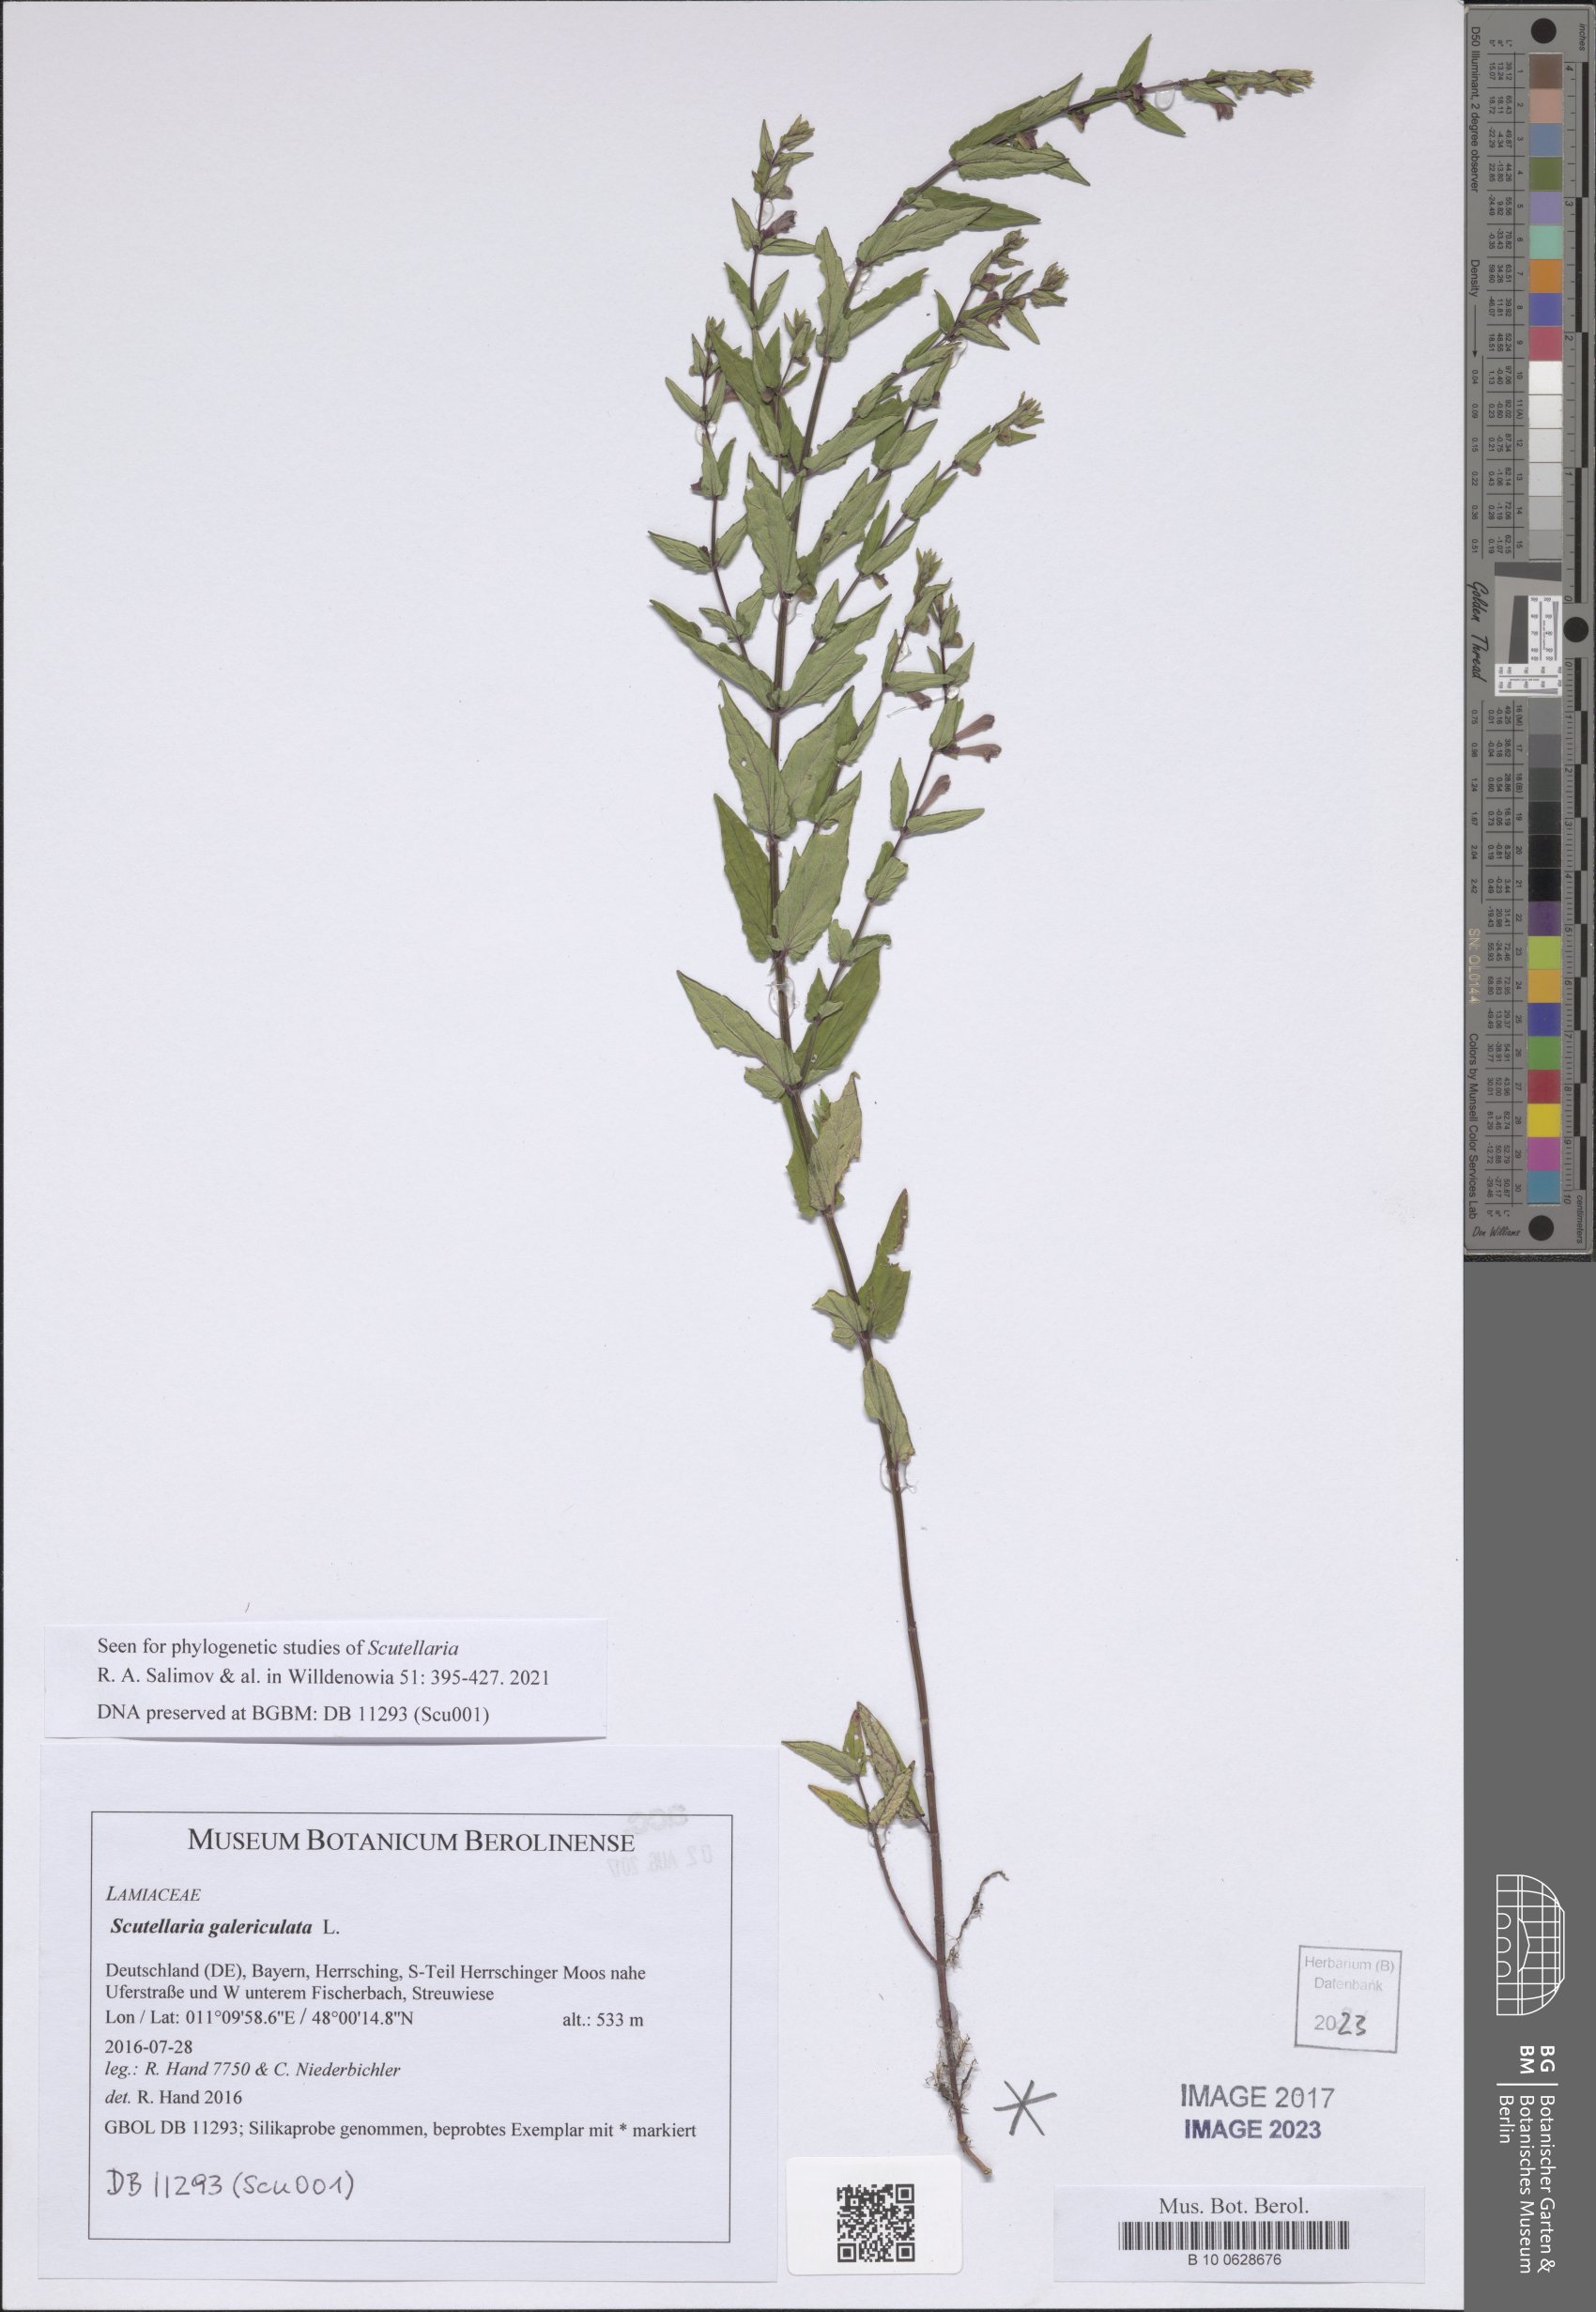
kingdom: Plantae
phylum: Tracheophyta
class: Magnoliopsida
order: Lamiales
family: Lamiaceae
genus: Scutellaria
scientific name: Scutellaria galericulata
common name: Skullcap
